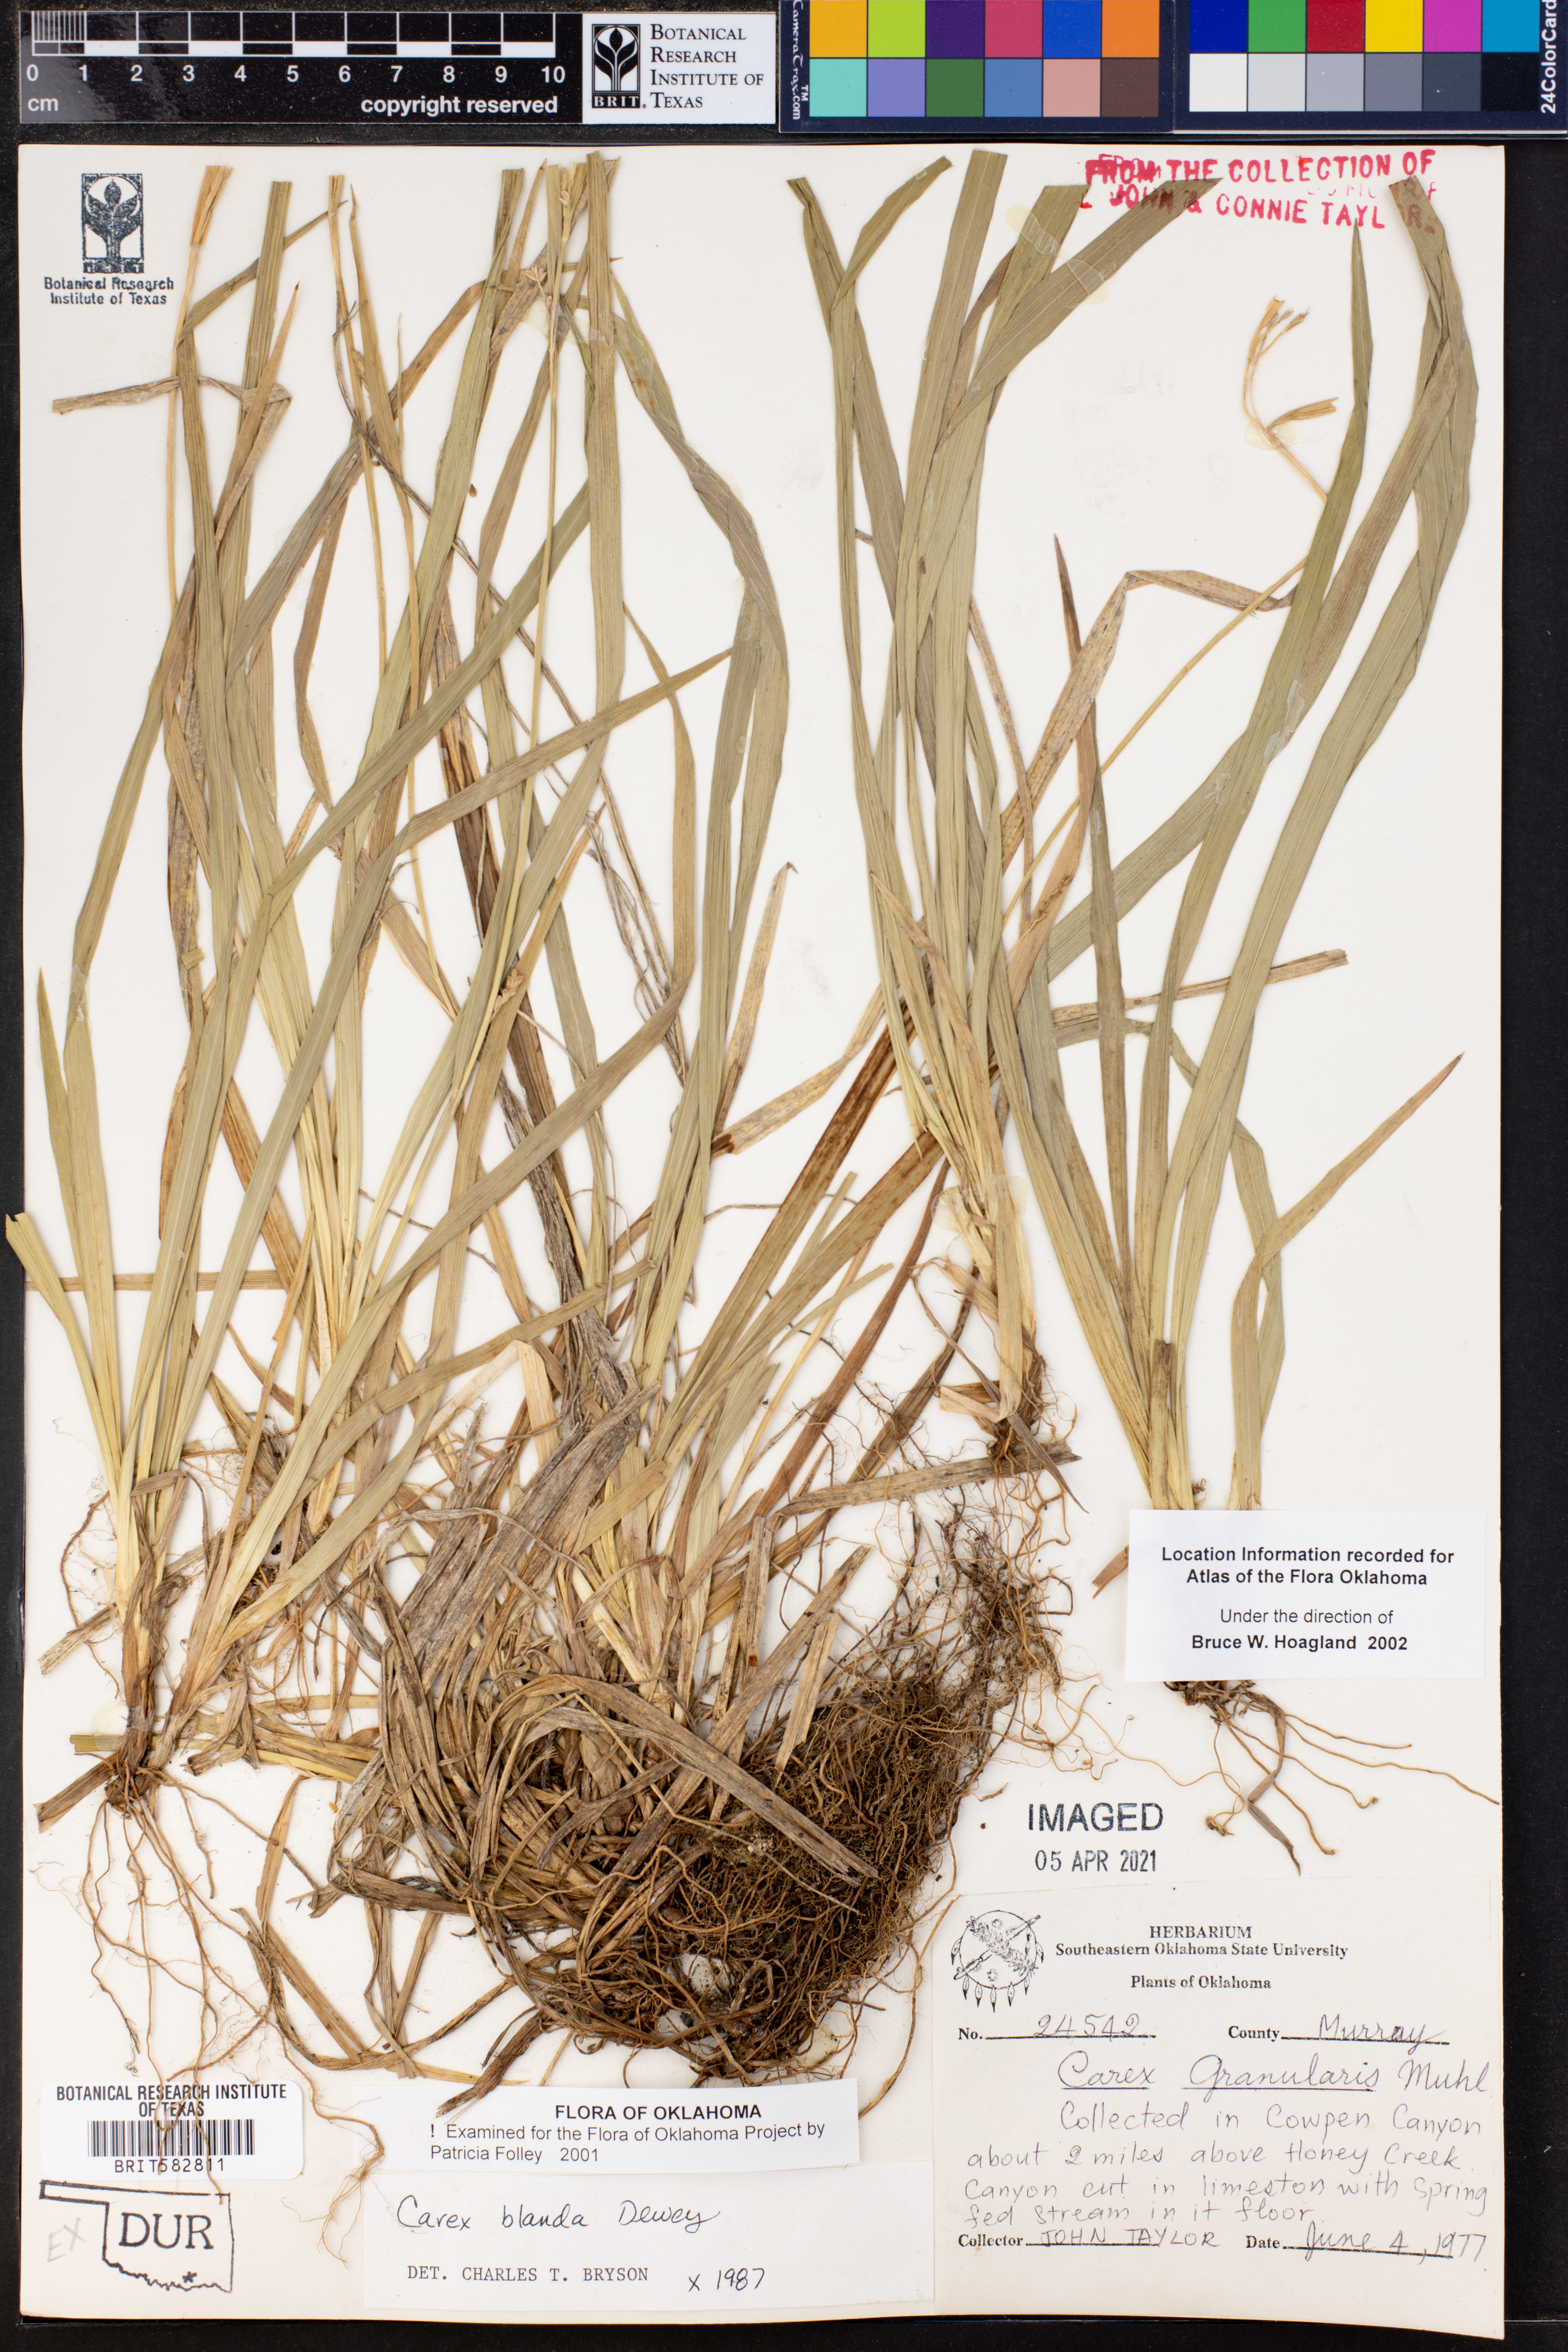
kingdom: Plantae
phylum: Tracheophyta
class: Liliopsida
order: Poales
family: Cyperaceae
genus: Carex
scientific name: Carex blanda
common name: Bland sedge
